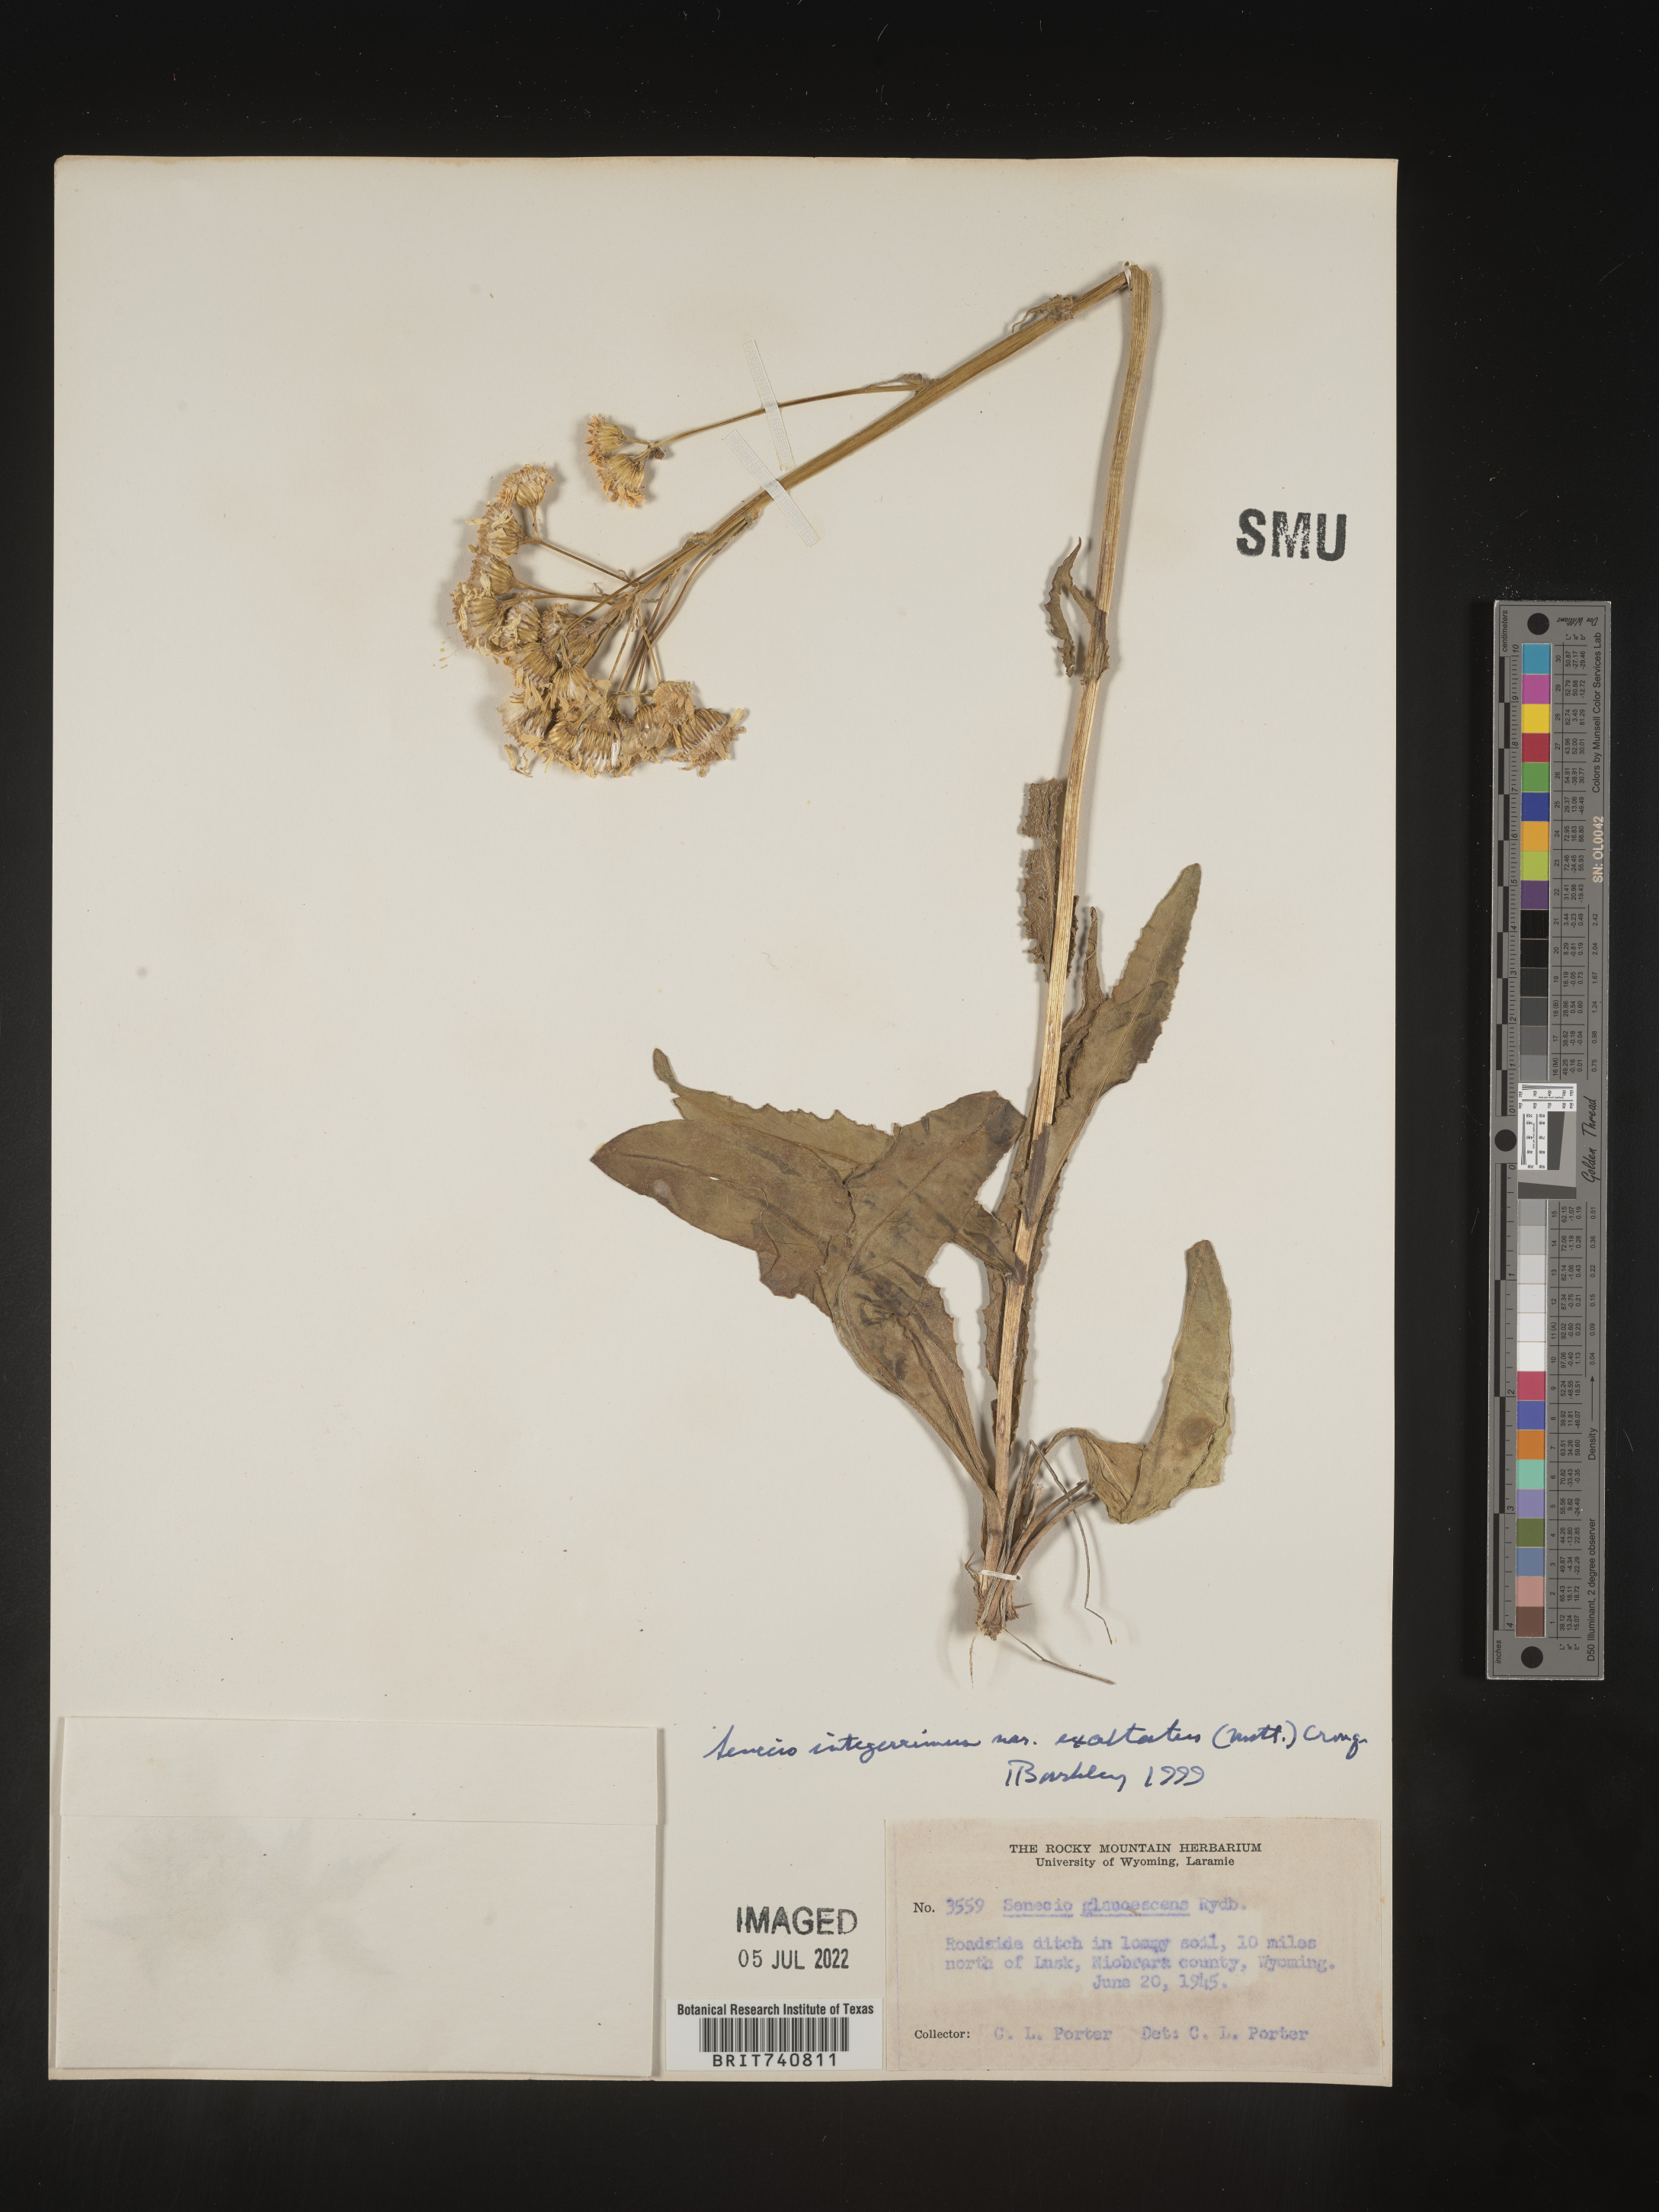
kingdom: Plantae
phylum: Tracheophyta
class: Magnoliopsida
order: Asterales
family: Asteraceae
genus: Senecio
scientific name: Senecio integerrimus
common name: Gaugeplant
